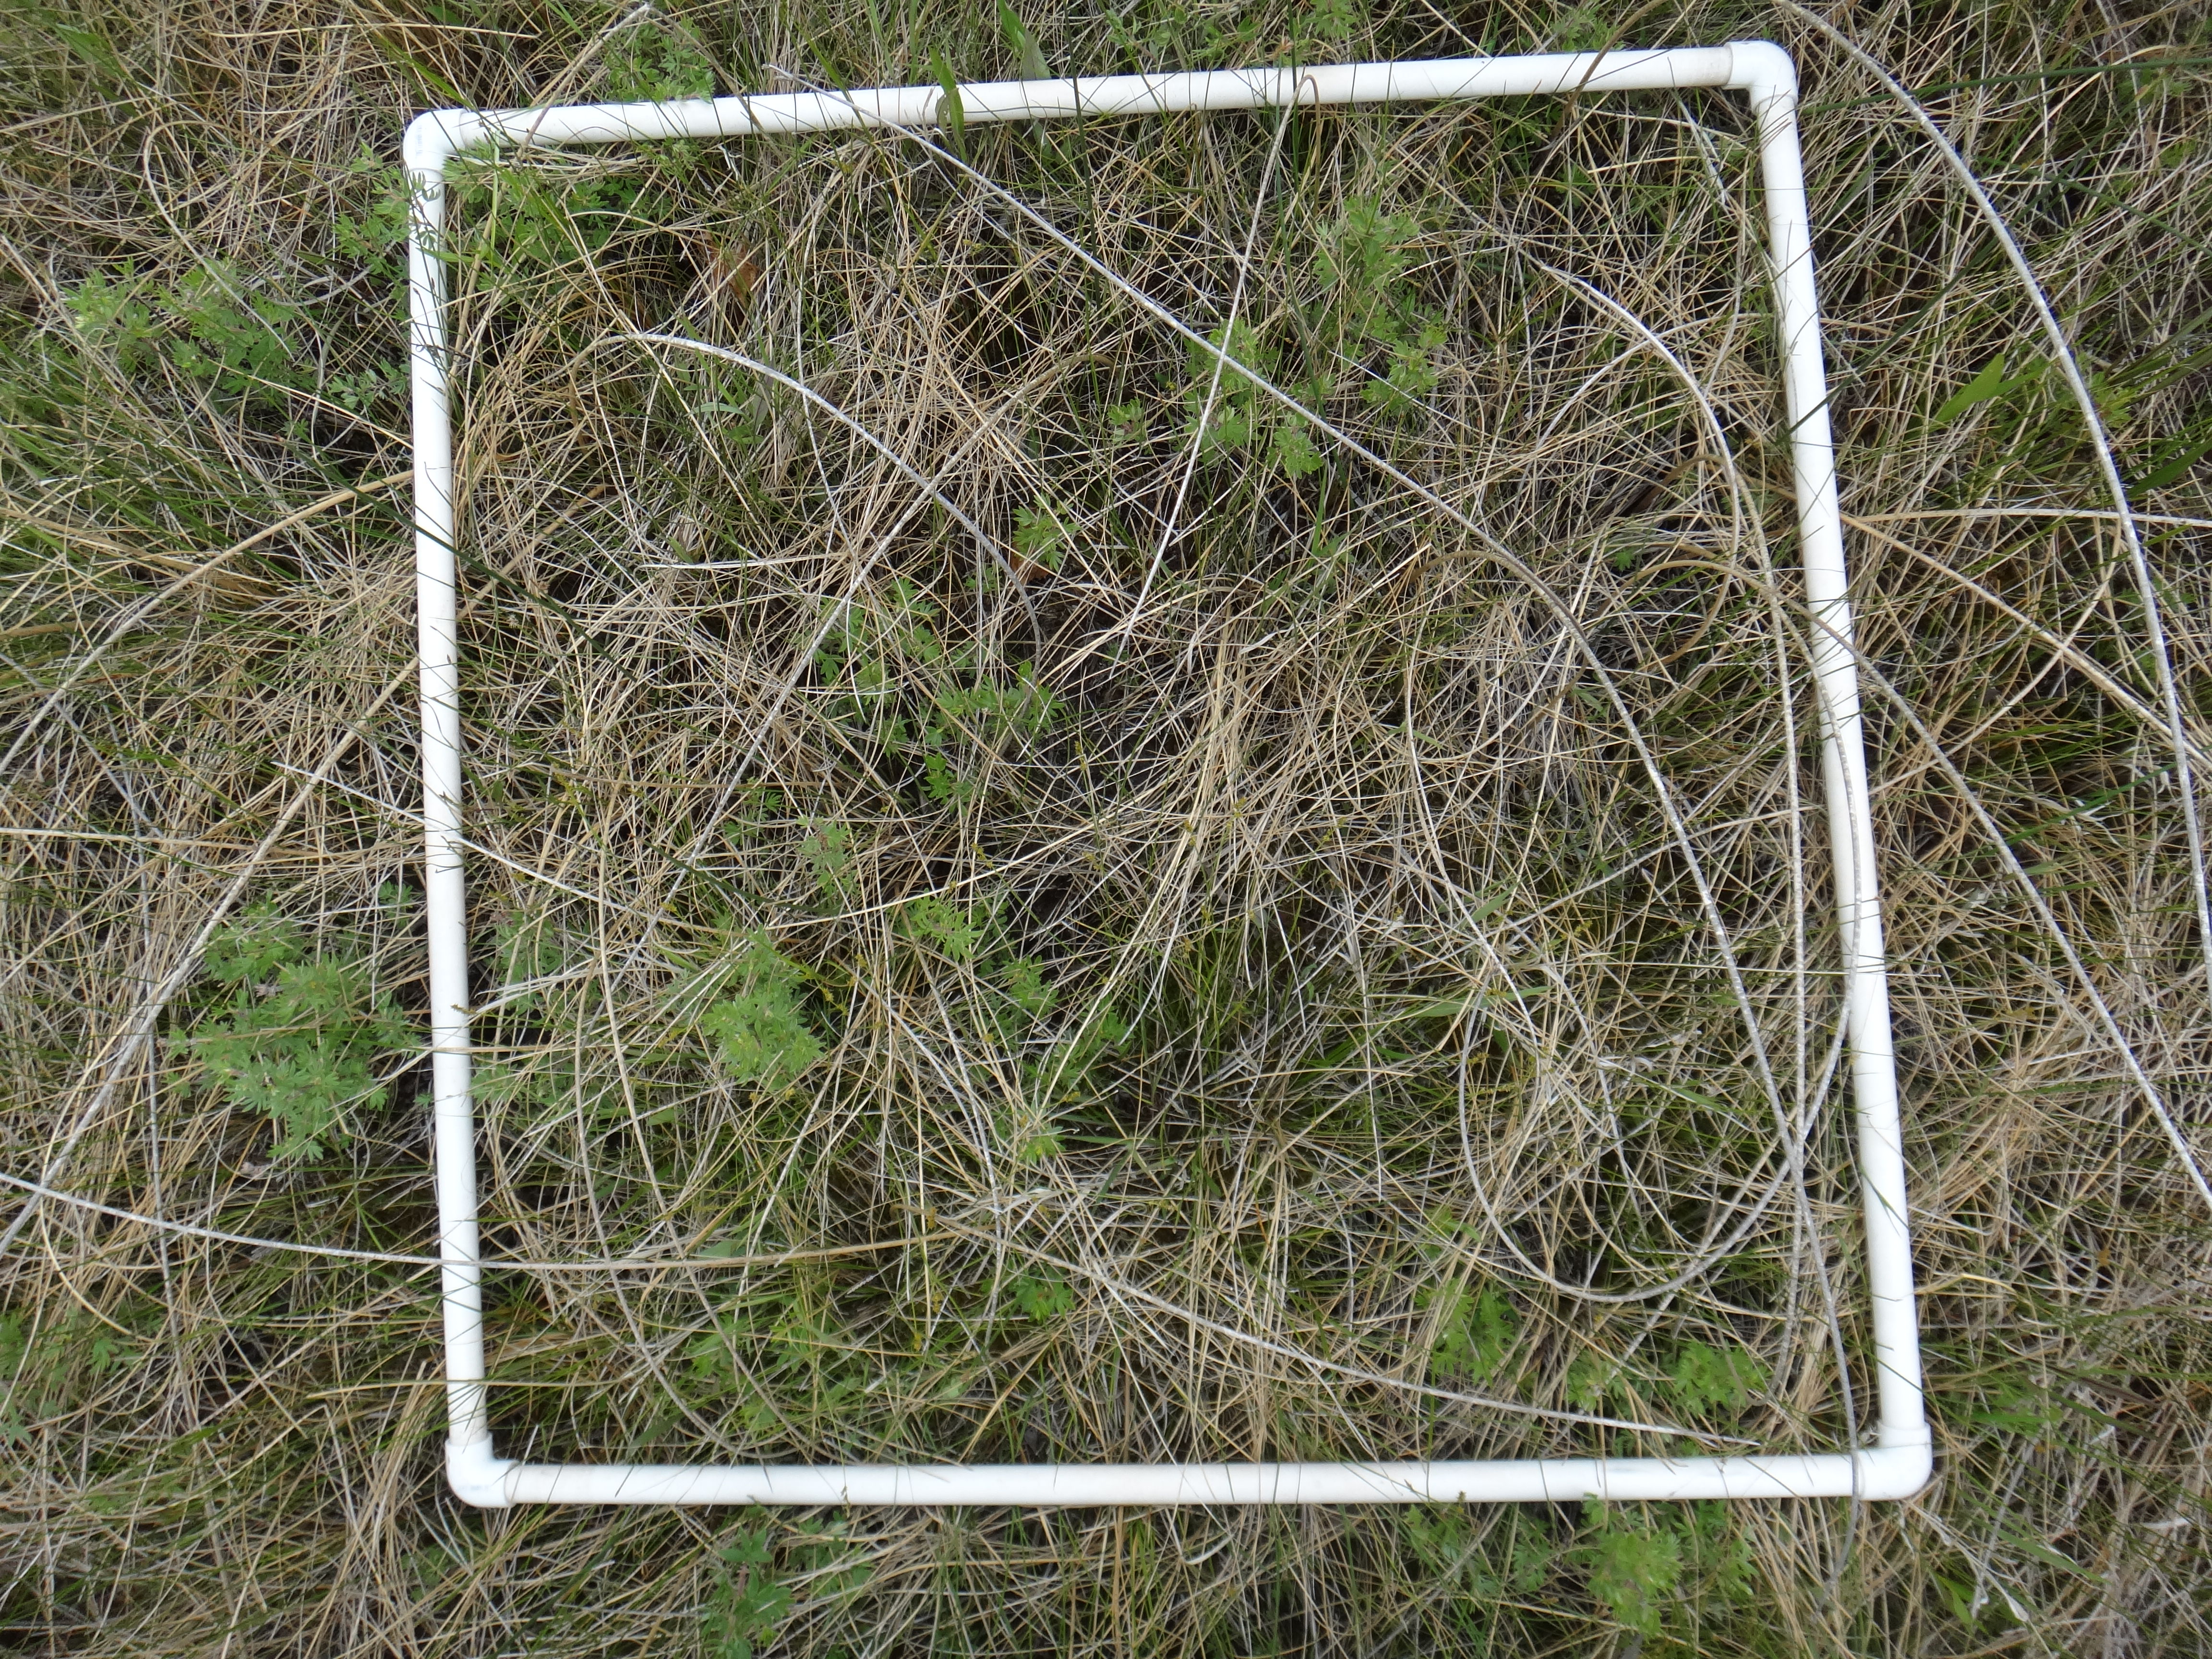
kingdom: Plantae
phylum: Tracheophyta
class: Magnoliopsida
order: Rosales
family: Rosaceae
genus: Dasiphora
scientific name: Dasiphora fruticosa
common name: Shrubby cinquefoil
